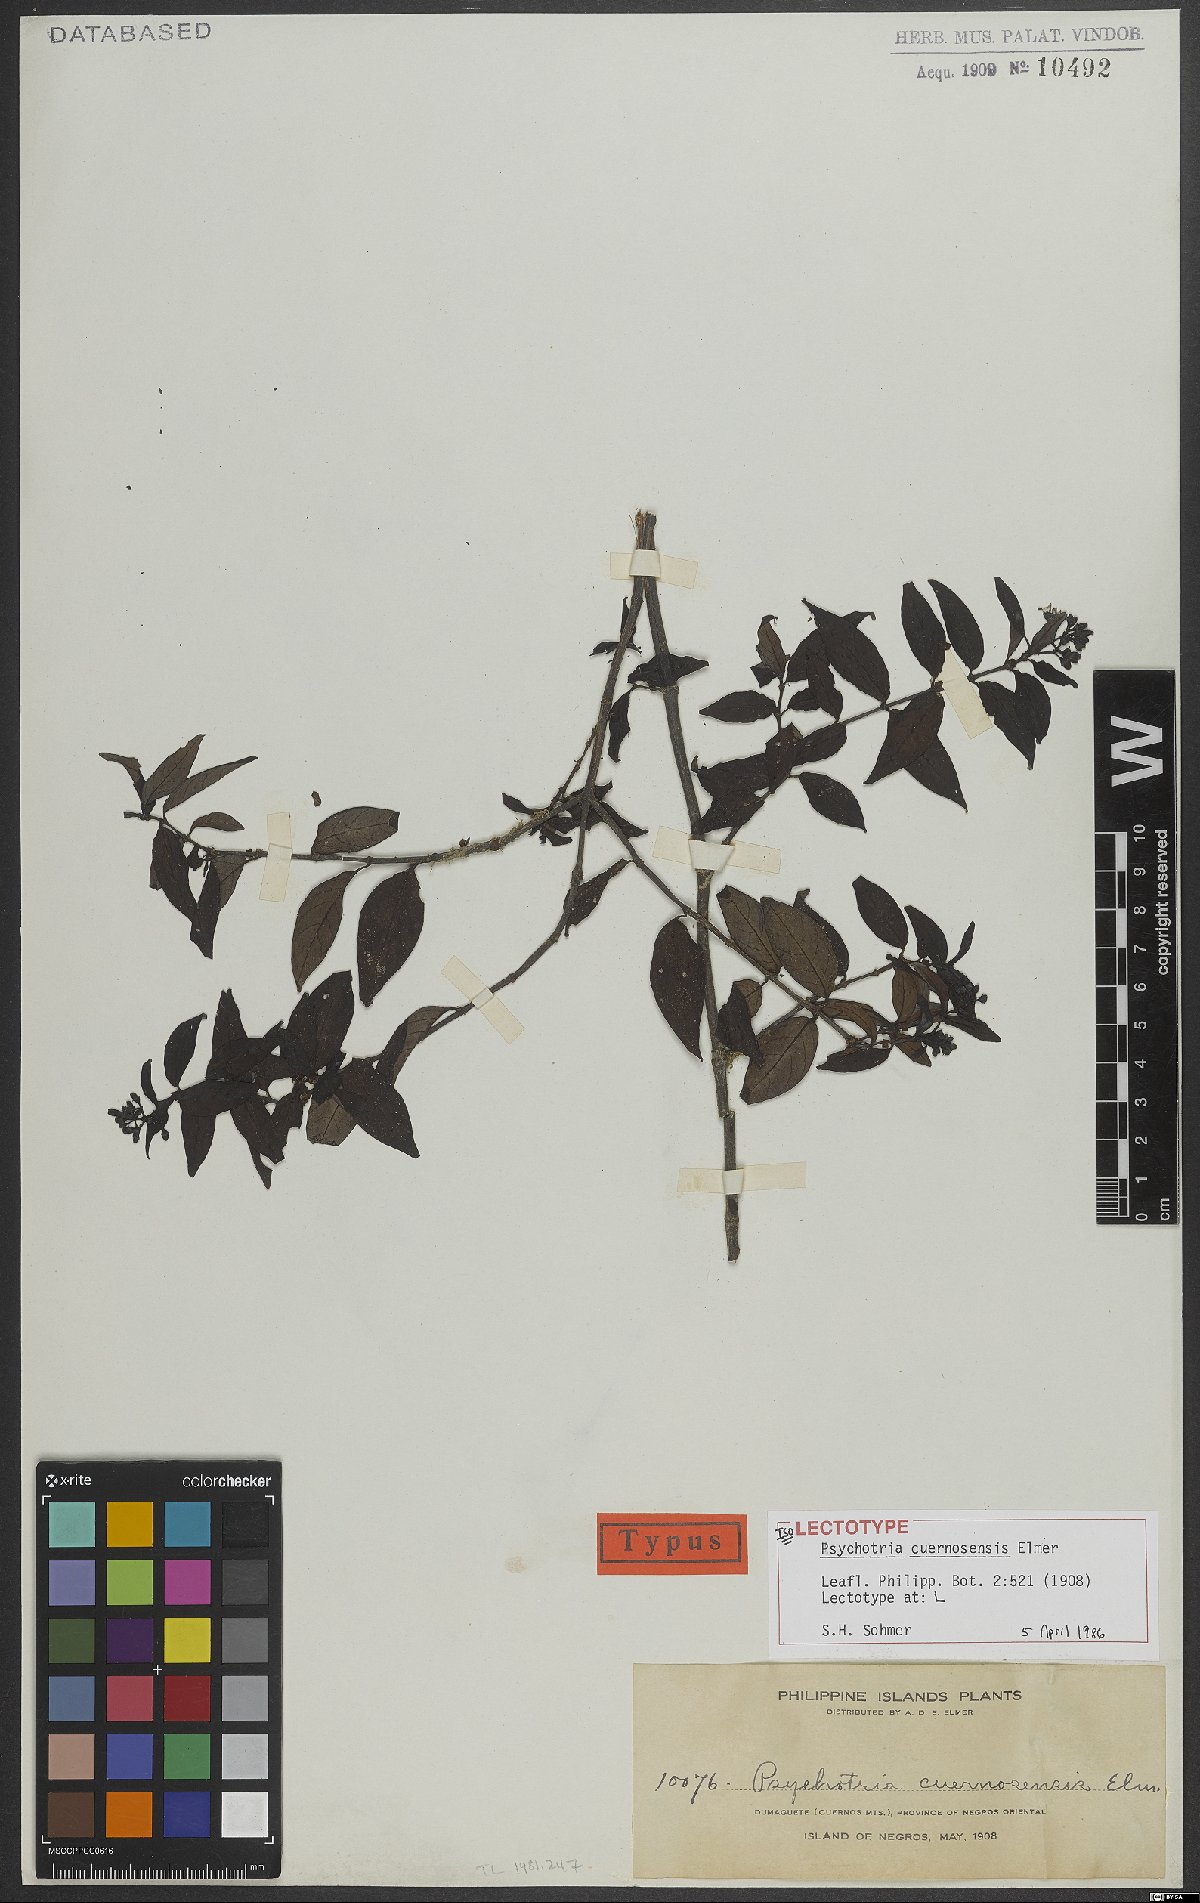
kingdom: Plantae
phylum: Tracheophyta
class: Magnoliopsida
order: Gentianales
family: Rubiaceae
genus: Psychotria
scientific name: Psychotria cuernosensis
